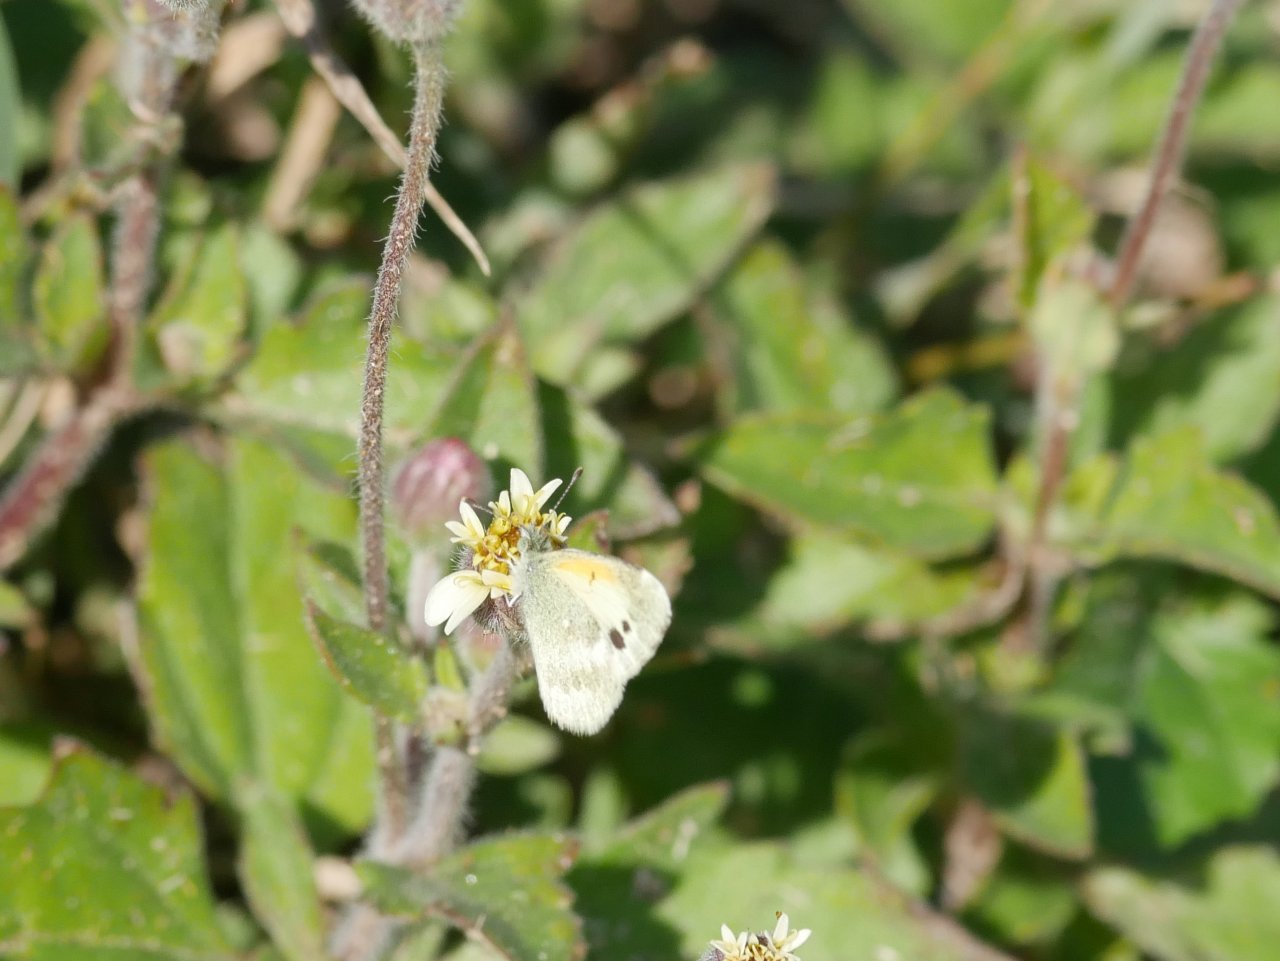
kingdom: Animalia
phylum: Arthropoda
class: Insecta
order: Lepidoptera
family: Pieridae
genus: Nathalis
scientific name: Nathalis iole
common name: Dainty Sulphur
